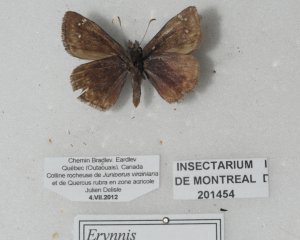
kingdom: Animalia
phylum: Arthropoda
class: Insecta
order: Lepidoptera
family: Hesperiidae
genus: Gesta
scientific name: Gesta
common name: Columbine Duskywing
